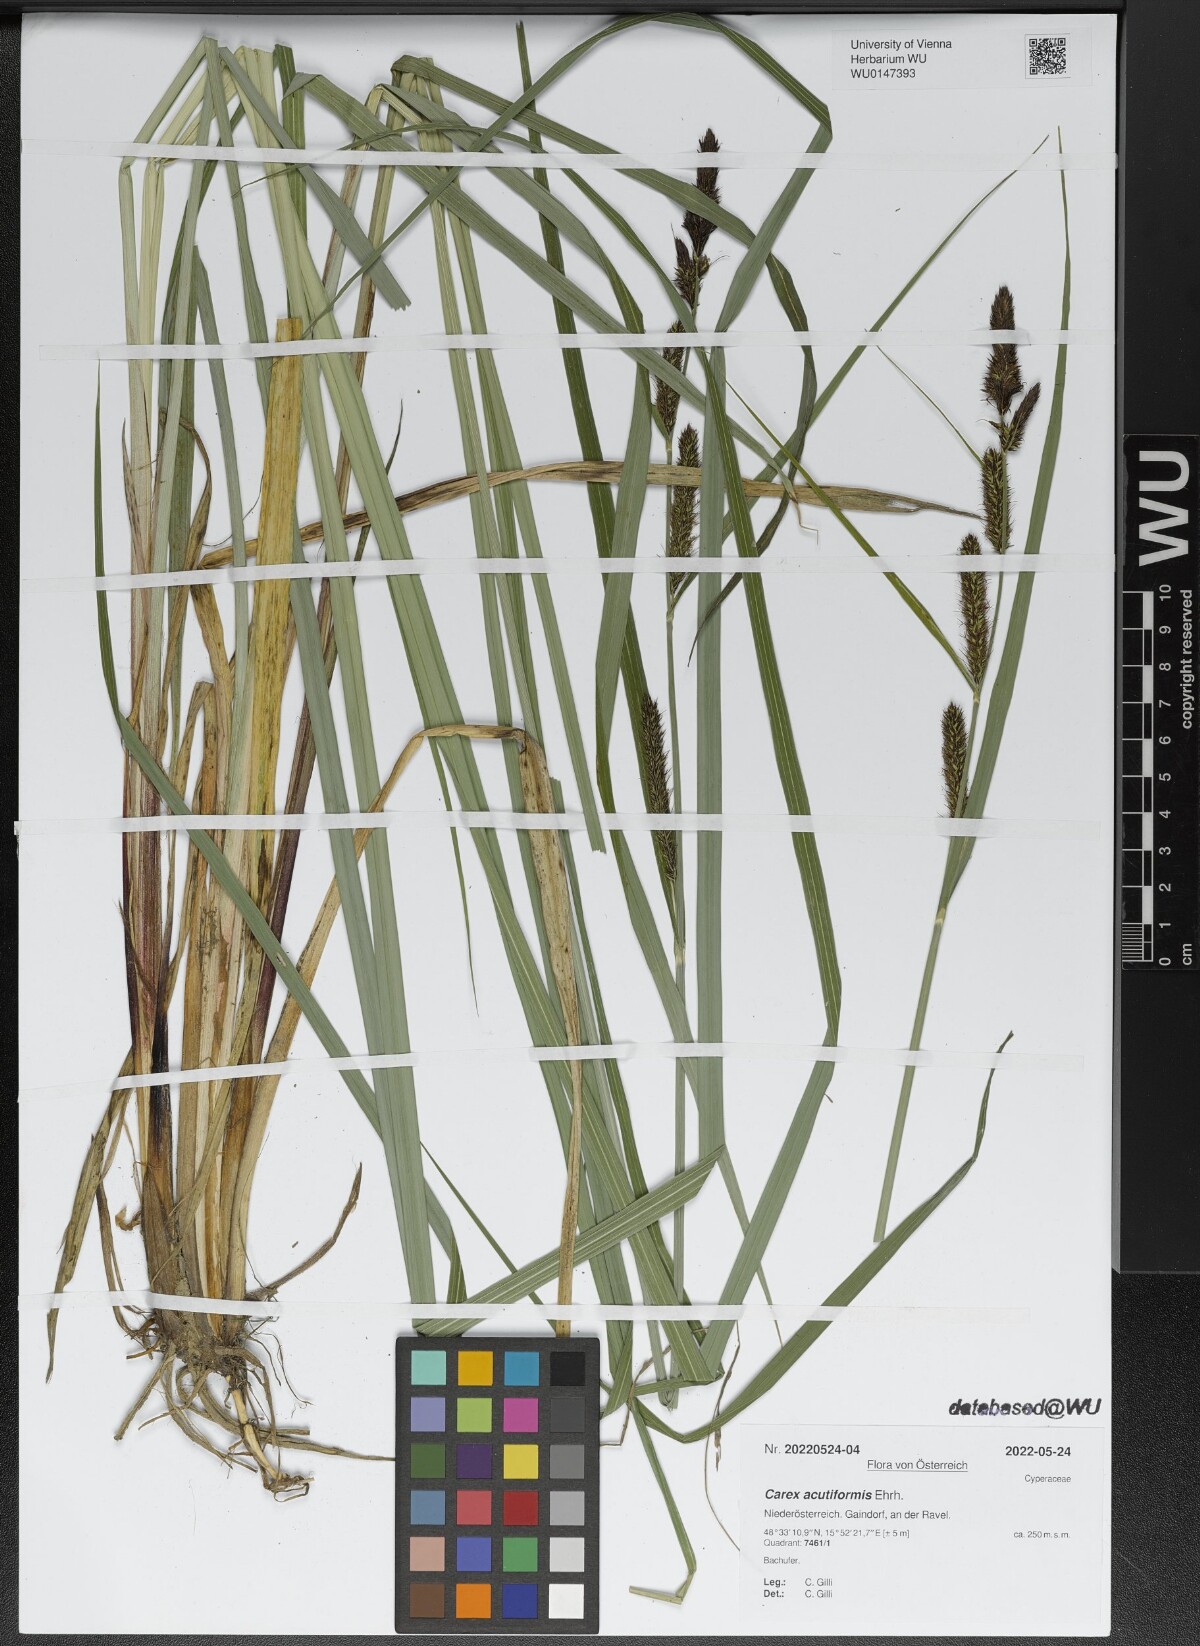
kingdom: Plantae
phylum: Tracheophyta
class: Liliopsida
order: Poales
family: Cyperaceae
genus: Carex
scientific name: Carex acutiformis
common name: Lesser pond-sedge
